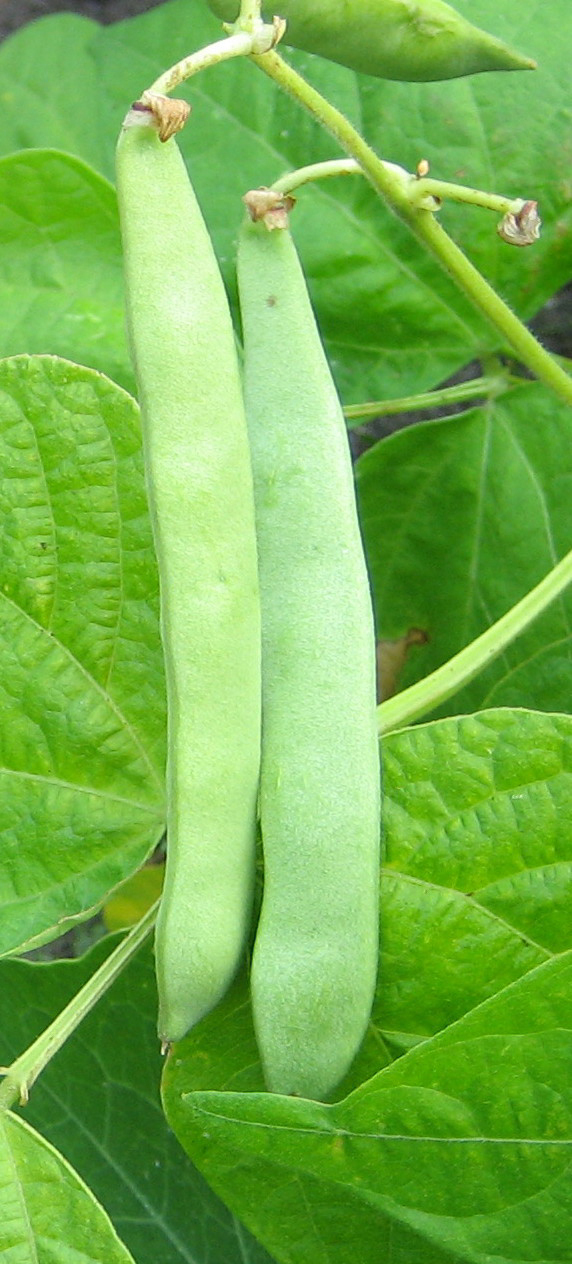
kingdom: Plantae
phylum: Tracheophyta
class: Magnoliopsida
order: Fabales
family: Fabaceae
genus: Phaseolus
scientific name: Phaseolus vulgaris
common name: Bean
